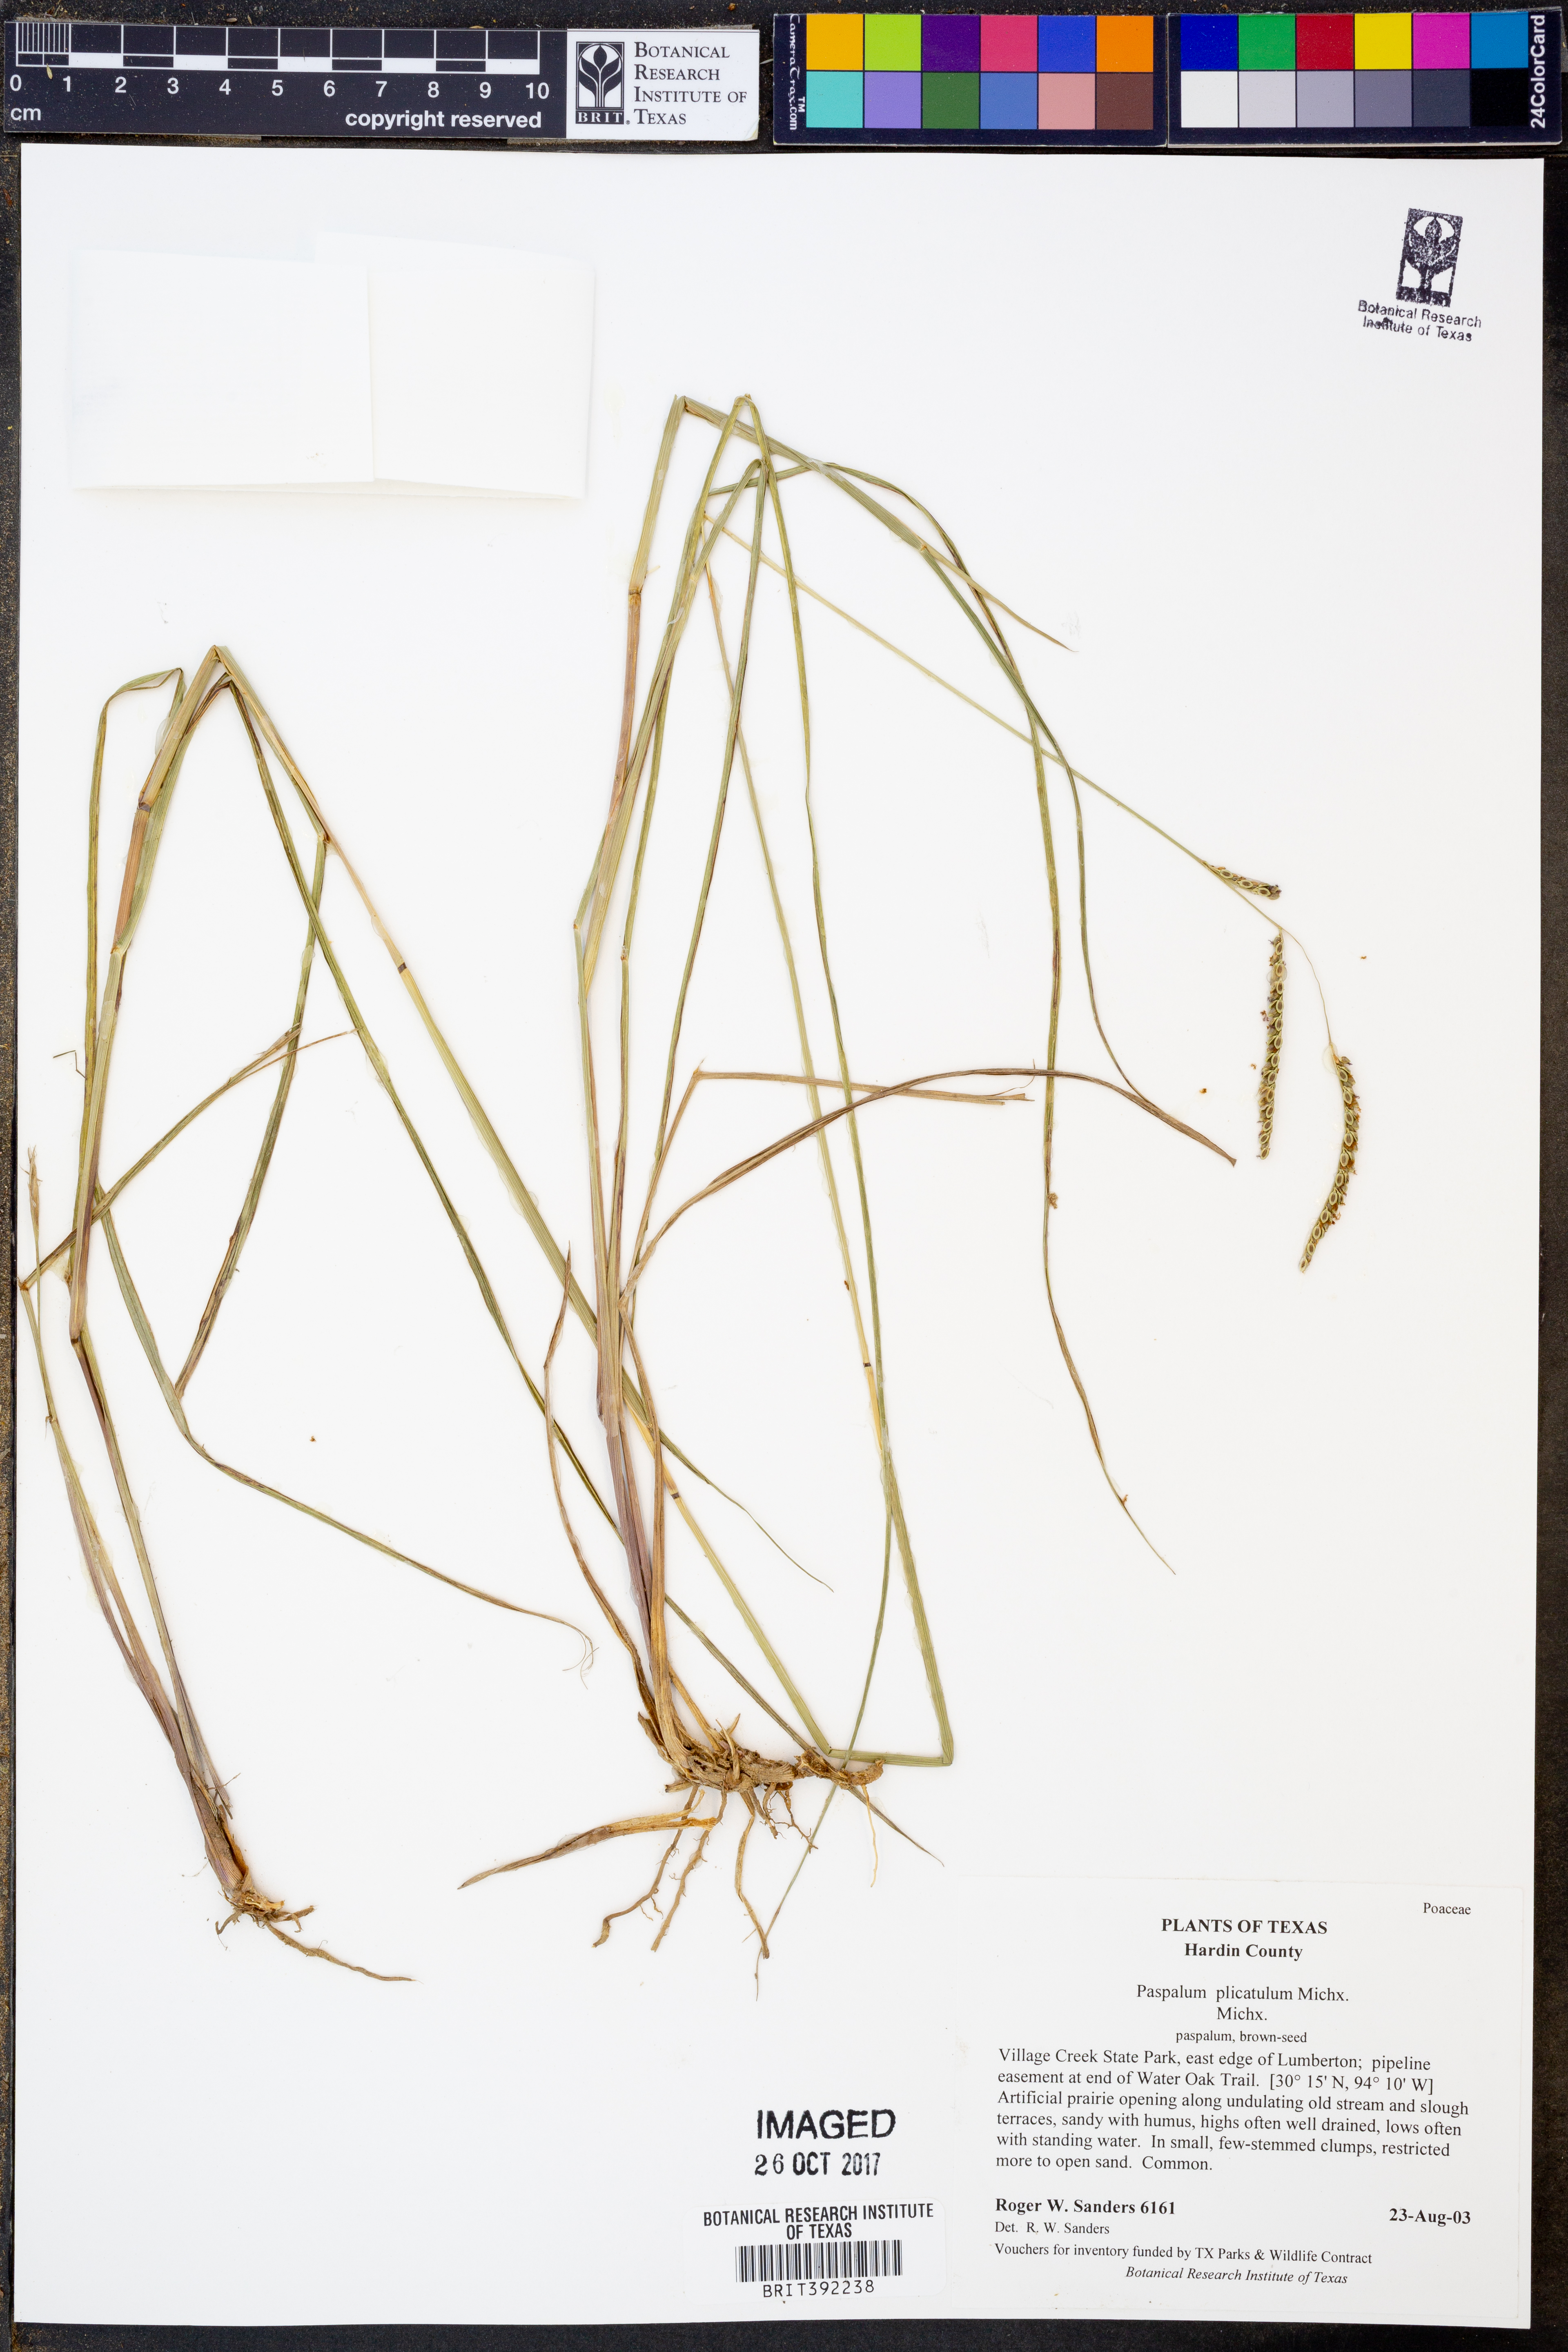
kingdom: Plantae
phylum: Tracheophyta
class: Liliopsida
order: Poales
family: Poaceae
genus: Paspalum
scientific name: Paspalum plicatulum
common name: Top paspalum
